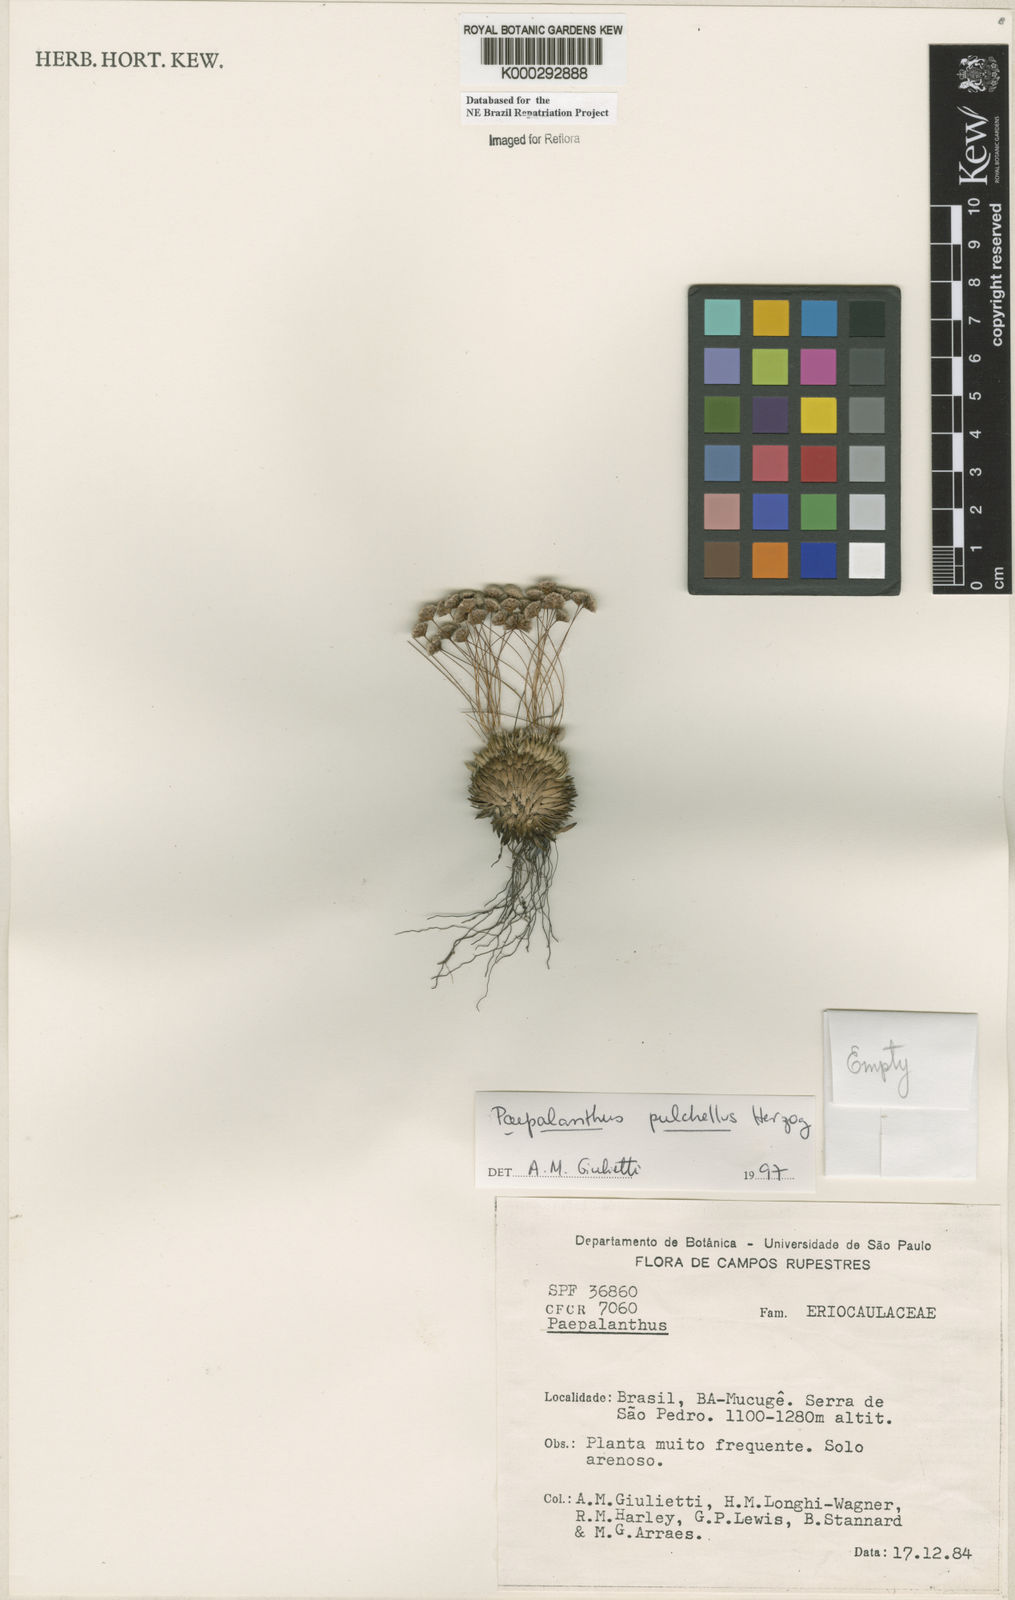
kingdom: Plantae
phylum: Tracheophyta
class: Liliopsida
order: Poales
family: Eriocaulaceae
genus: Paepalanthus
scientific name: Paepalanthus pulchellus
